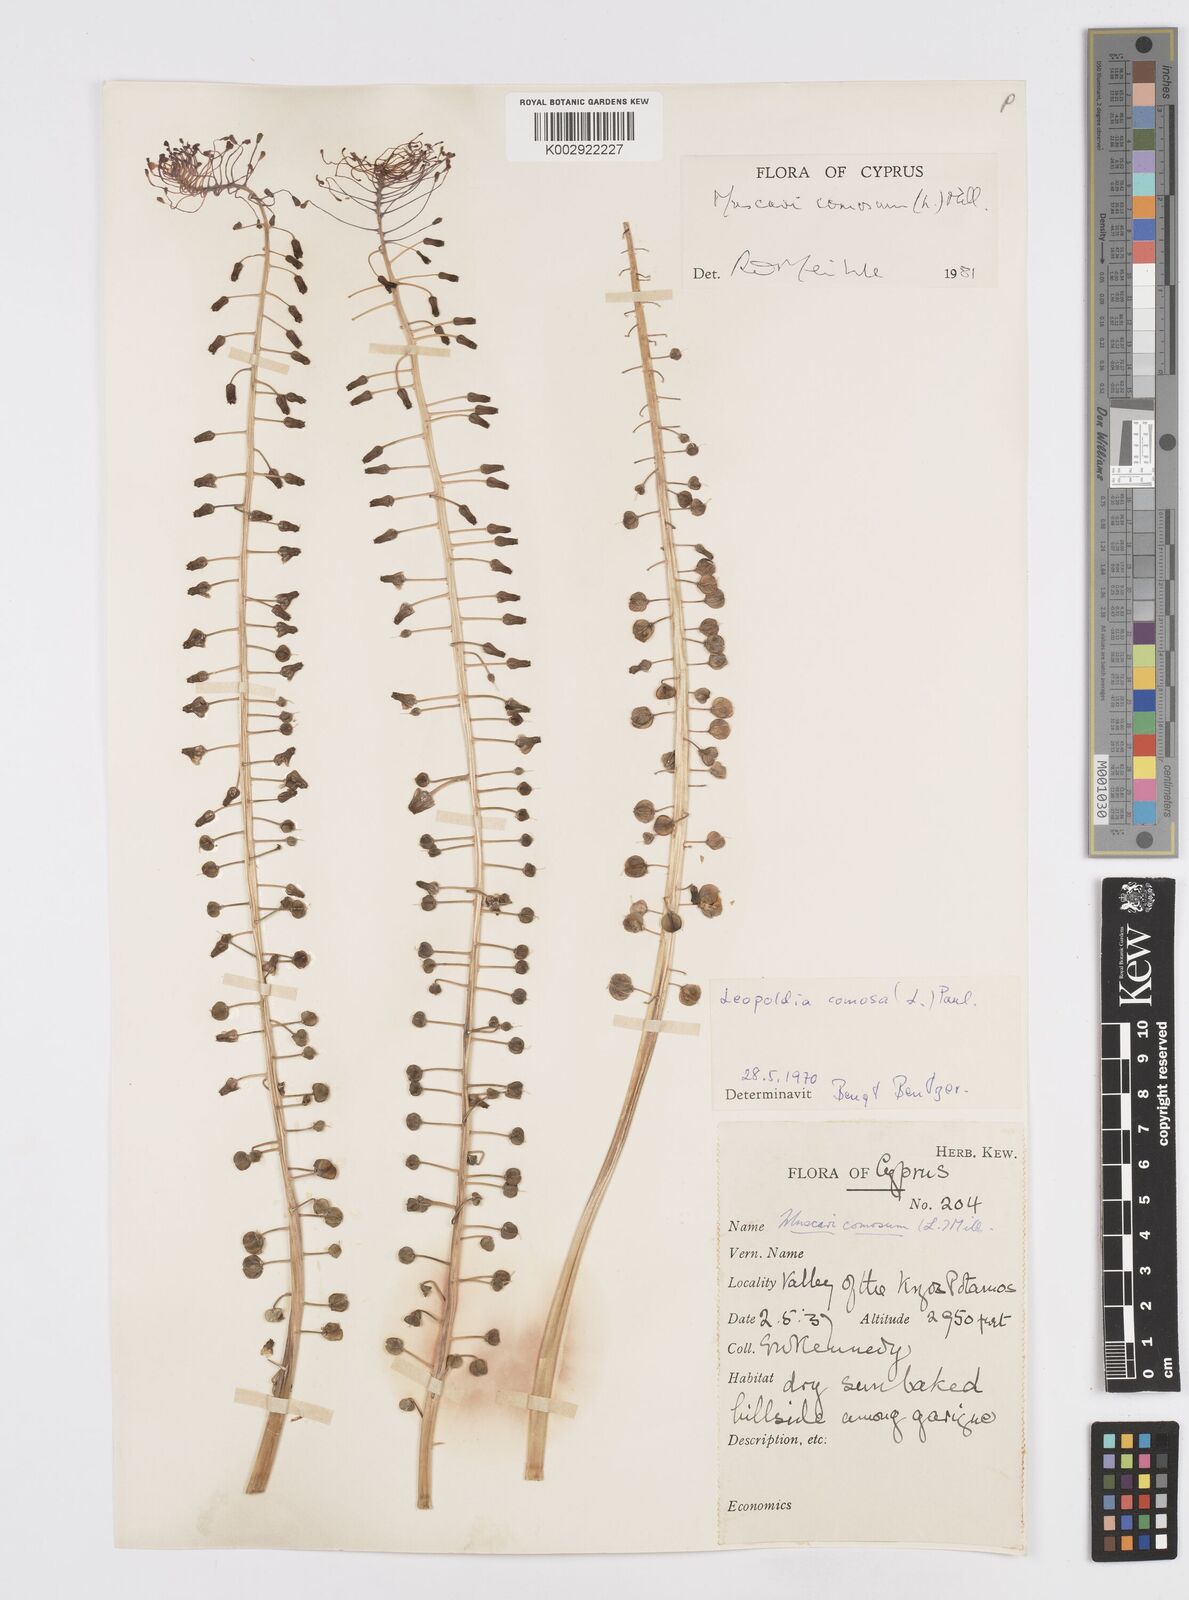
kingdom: Plantae
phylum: Tracheophyta
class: Liliopsida
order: Asparagales
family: Asparagaceae
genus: Muscari
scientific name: Muscari comosum
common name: Tassel hyacinth
